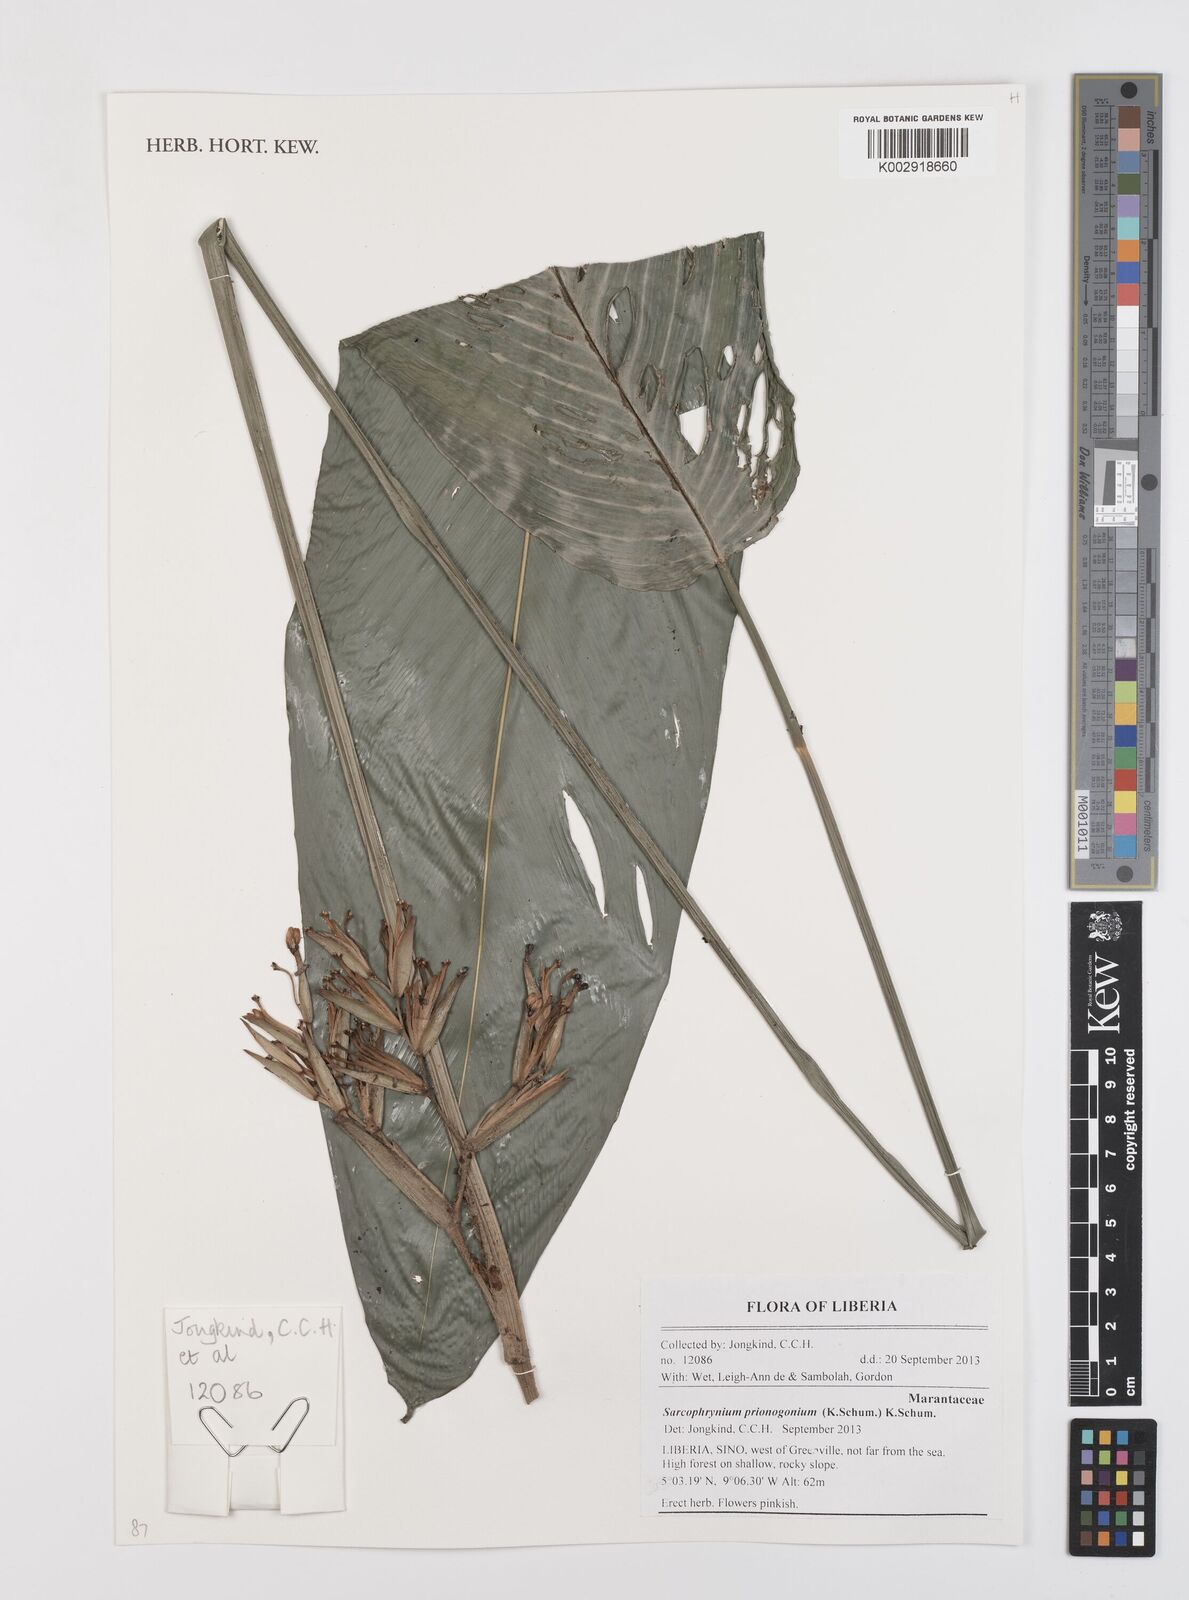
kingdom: Plantae
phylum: Tracheophyta
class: Liliopsida
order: Zingiberales
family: Marantaceae
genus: Sarcophrynium
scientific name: Sarcophrynium prionogonium
